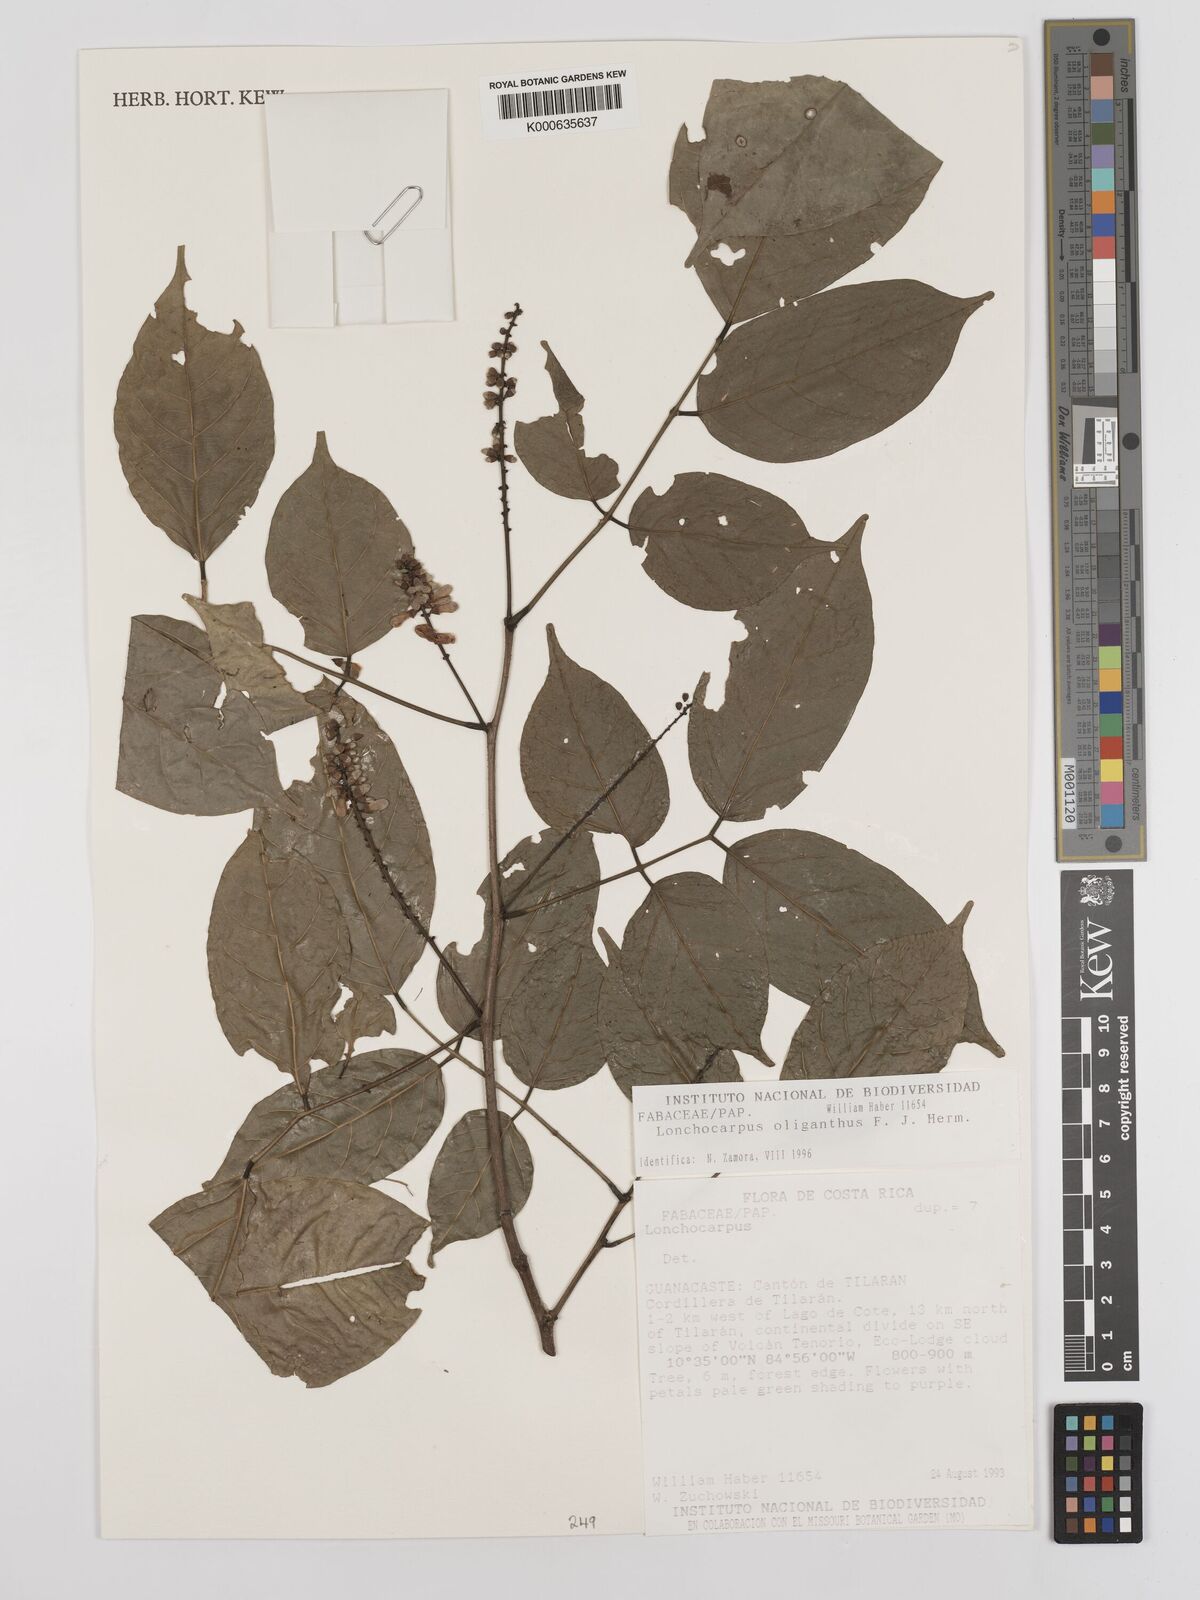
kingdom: Plantae
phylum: Tracheophyta
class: Magnoliopsida
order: Fabales
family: Fabaceae
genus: Lonchocarpus
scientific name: Lonchocarpus oliganthus
